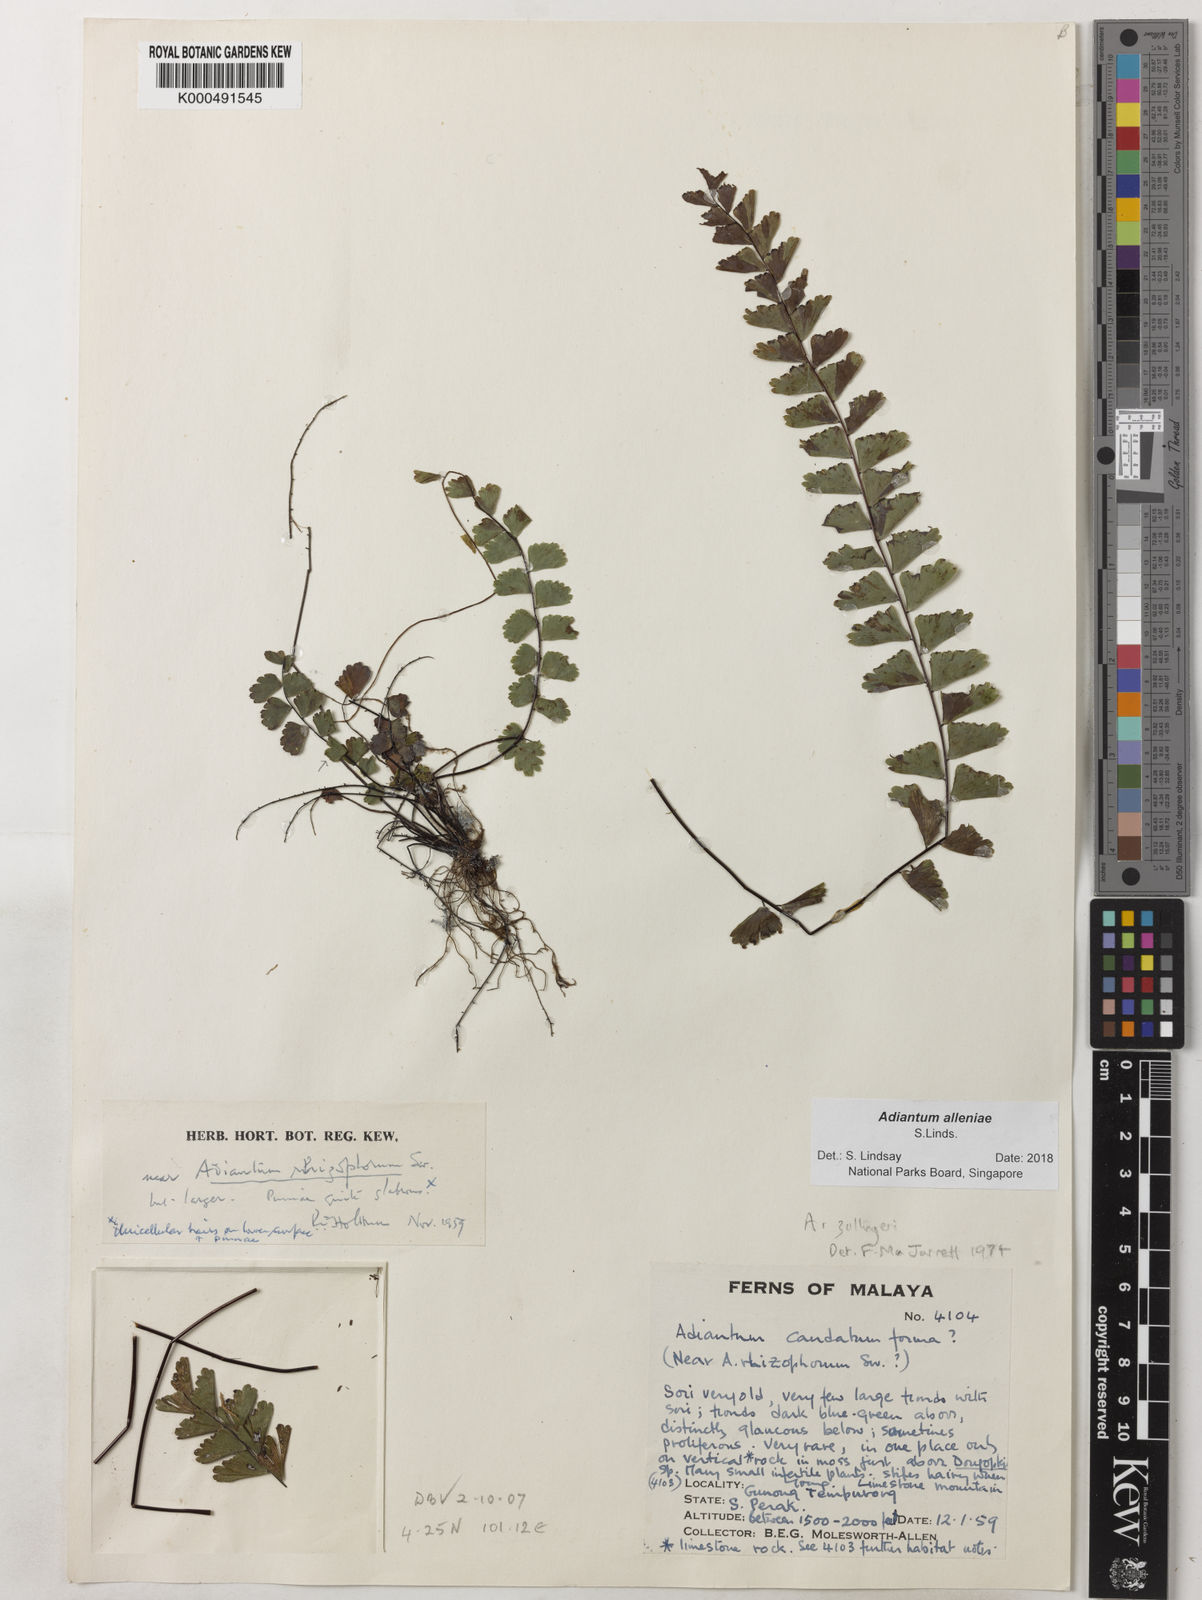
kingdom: Plantae
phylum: Tracheophyta
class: Polypodiopsida
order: Polypodiales
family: Pteridaceae
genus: Adiantum
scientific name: Adiantum alleniae
